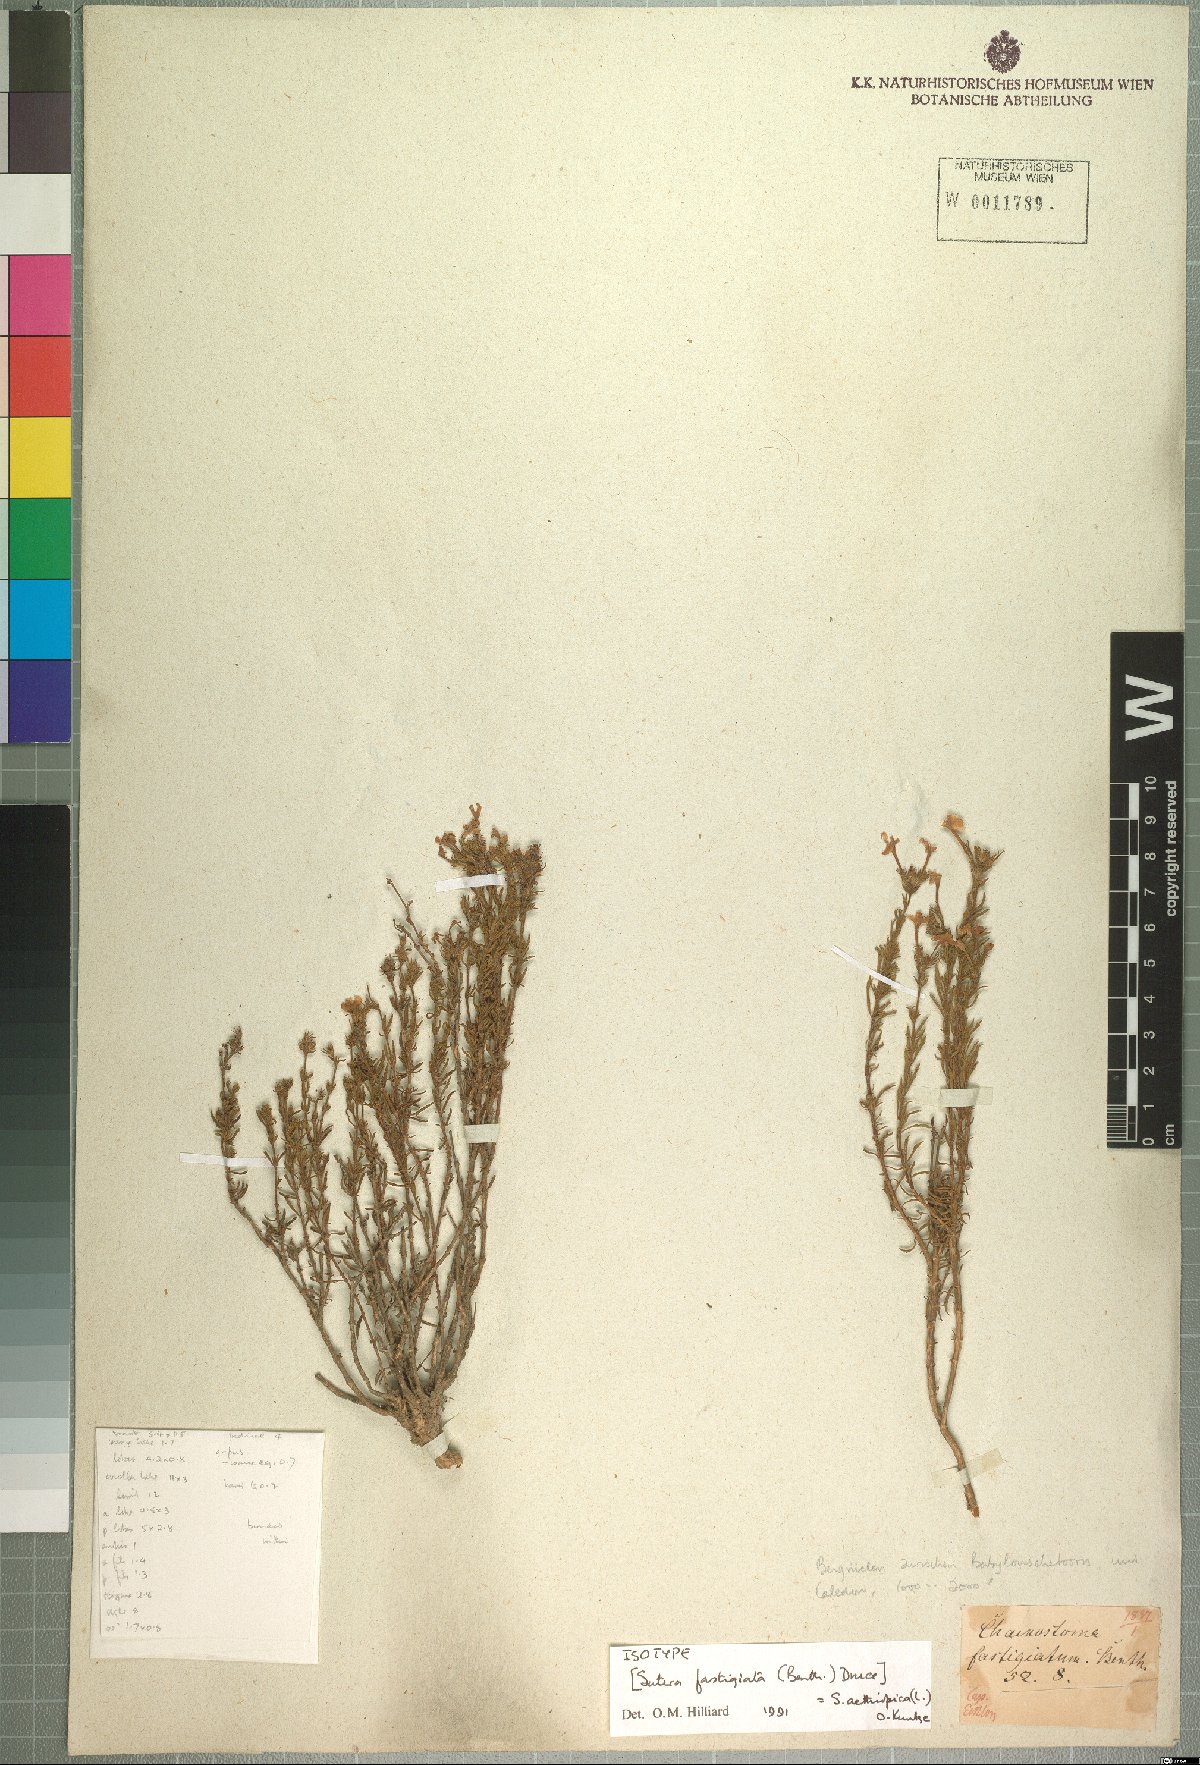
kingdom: Plantae
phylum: Tracheophyta
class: Magnoliopsida
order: Lamiales
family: Scrophulariaceae
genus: Chaenostoma
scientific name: Chaenostoma aethiopicum
